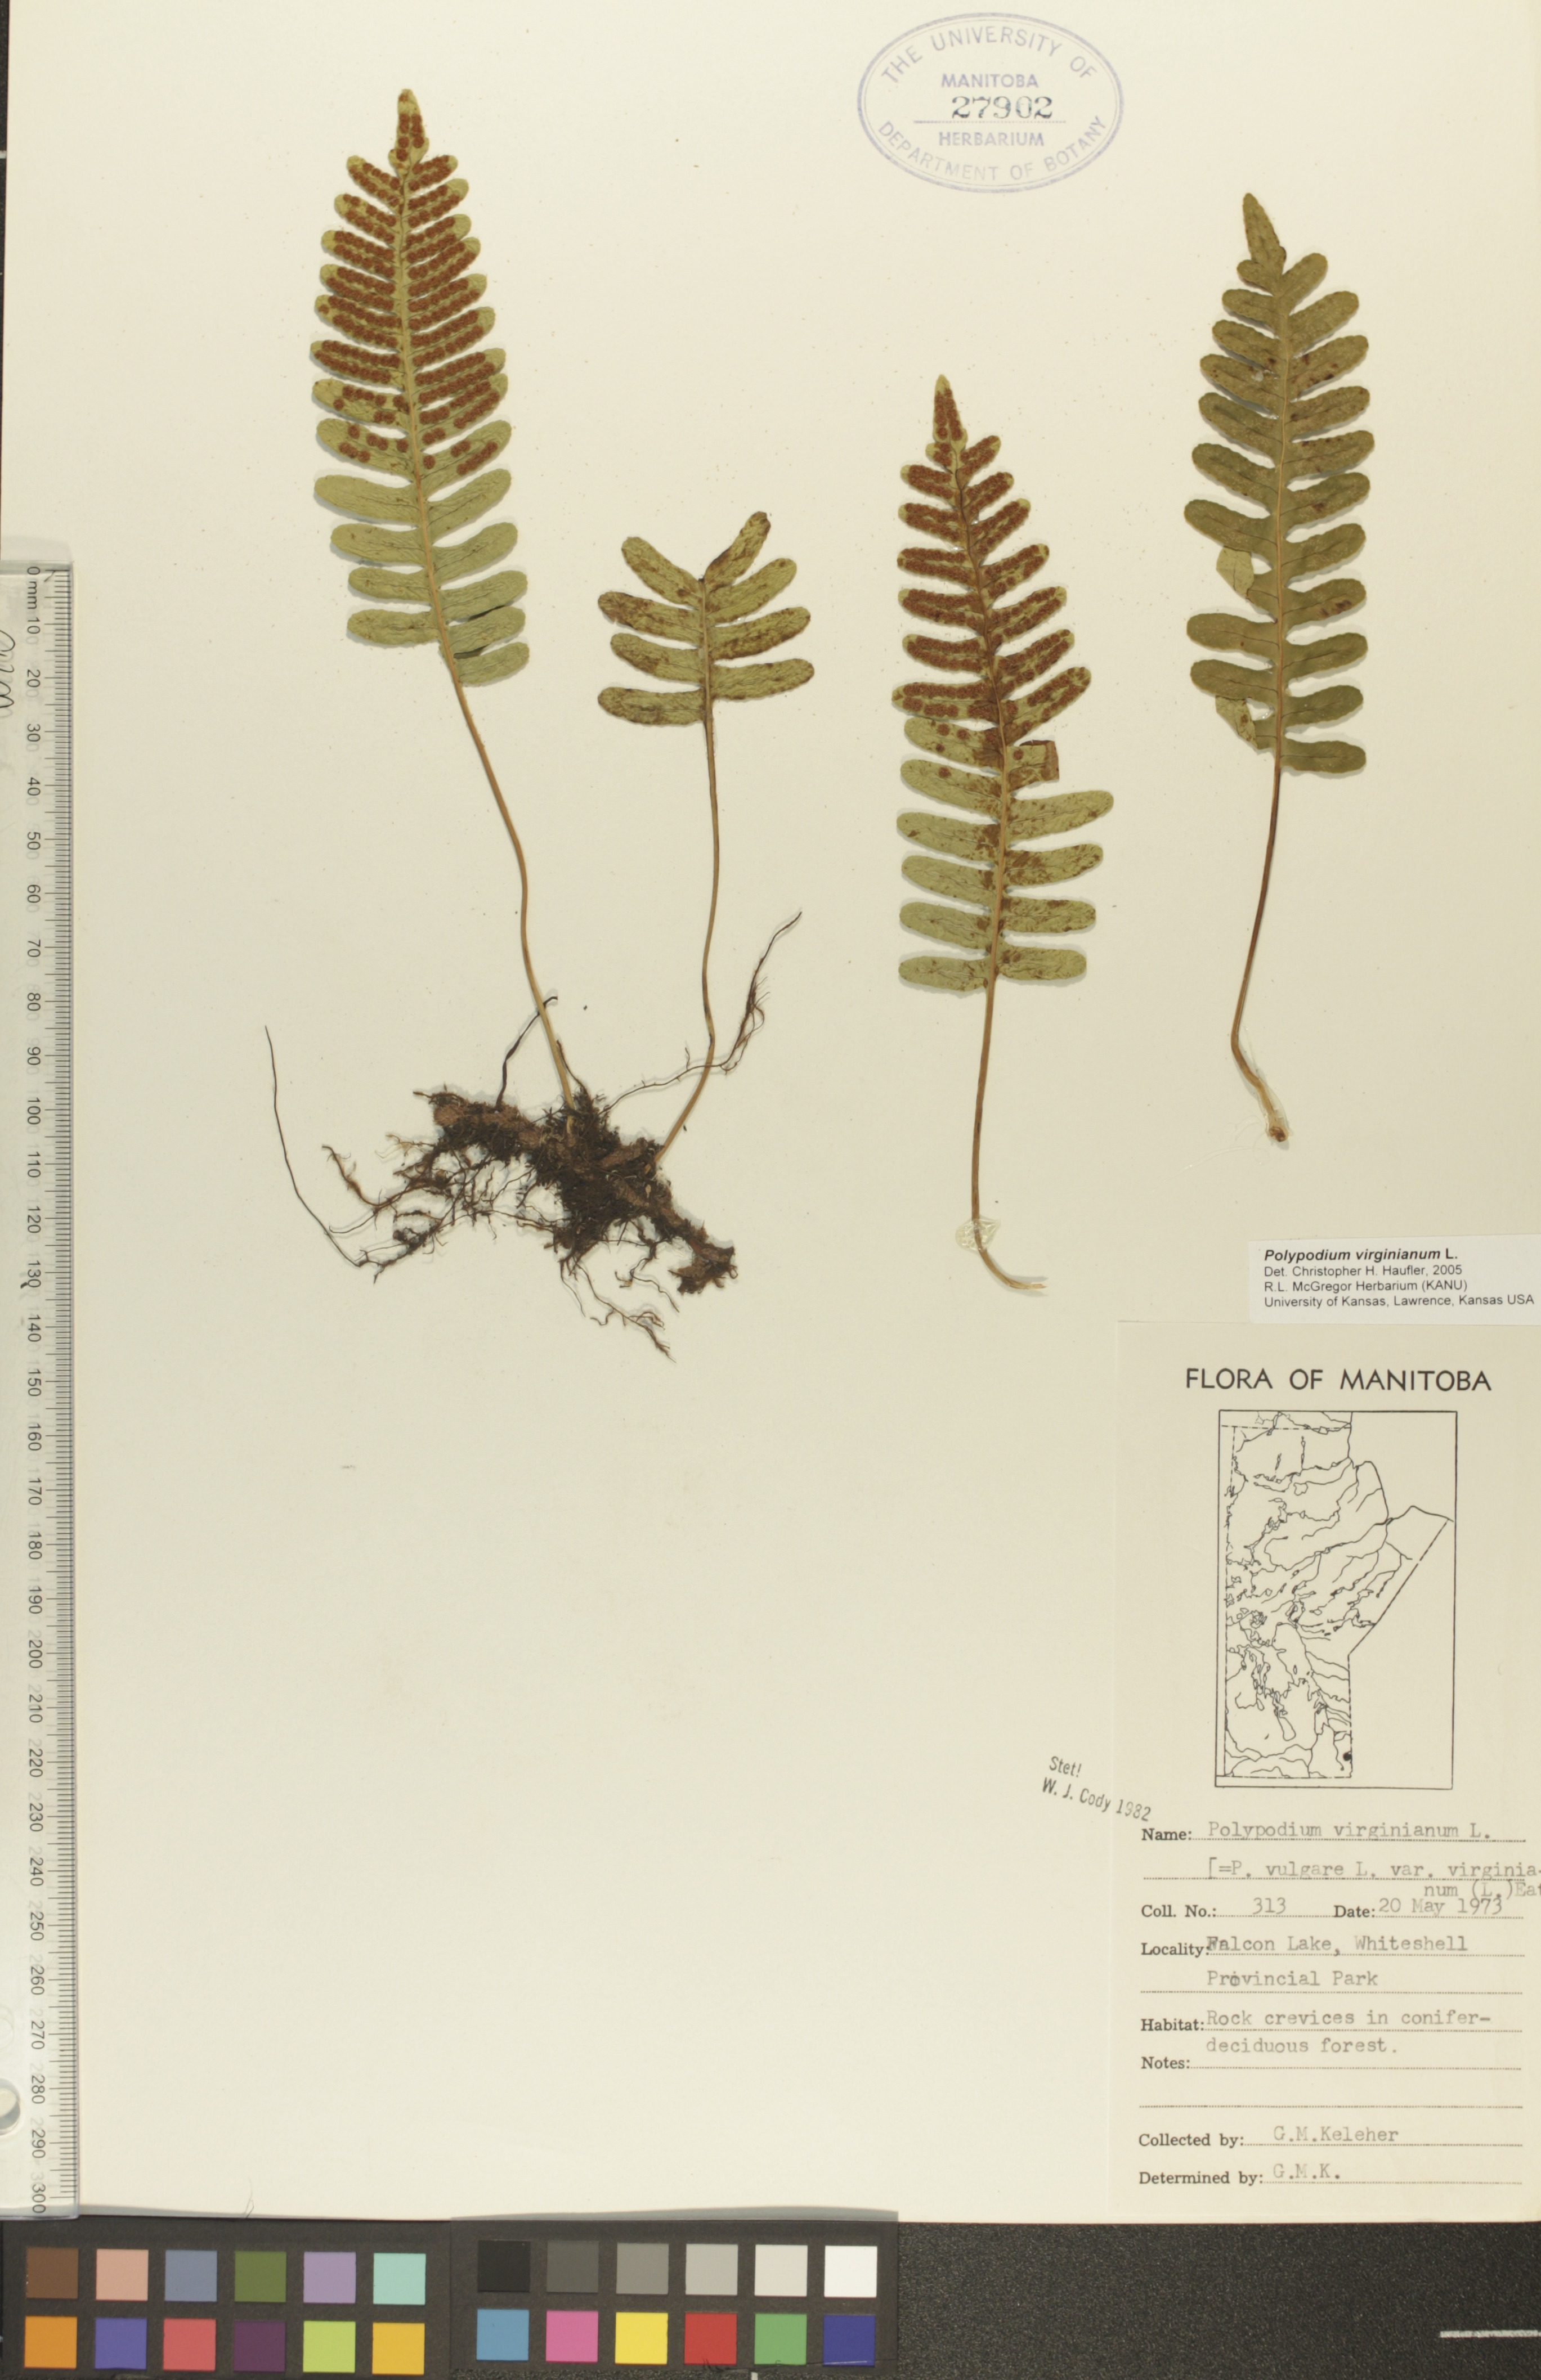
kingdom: Plantae
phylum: Tracheophyta
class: Polypodiopsida
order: Polypodiales
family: Polypodiaceae
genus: Polypodium
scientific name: Polypodium virginianum
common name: American wall fern
